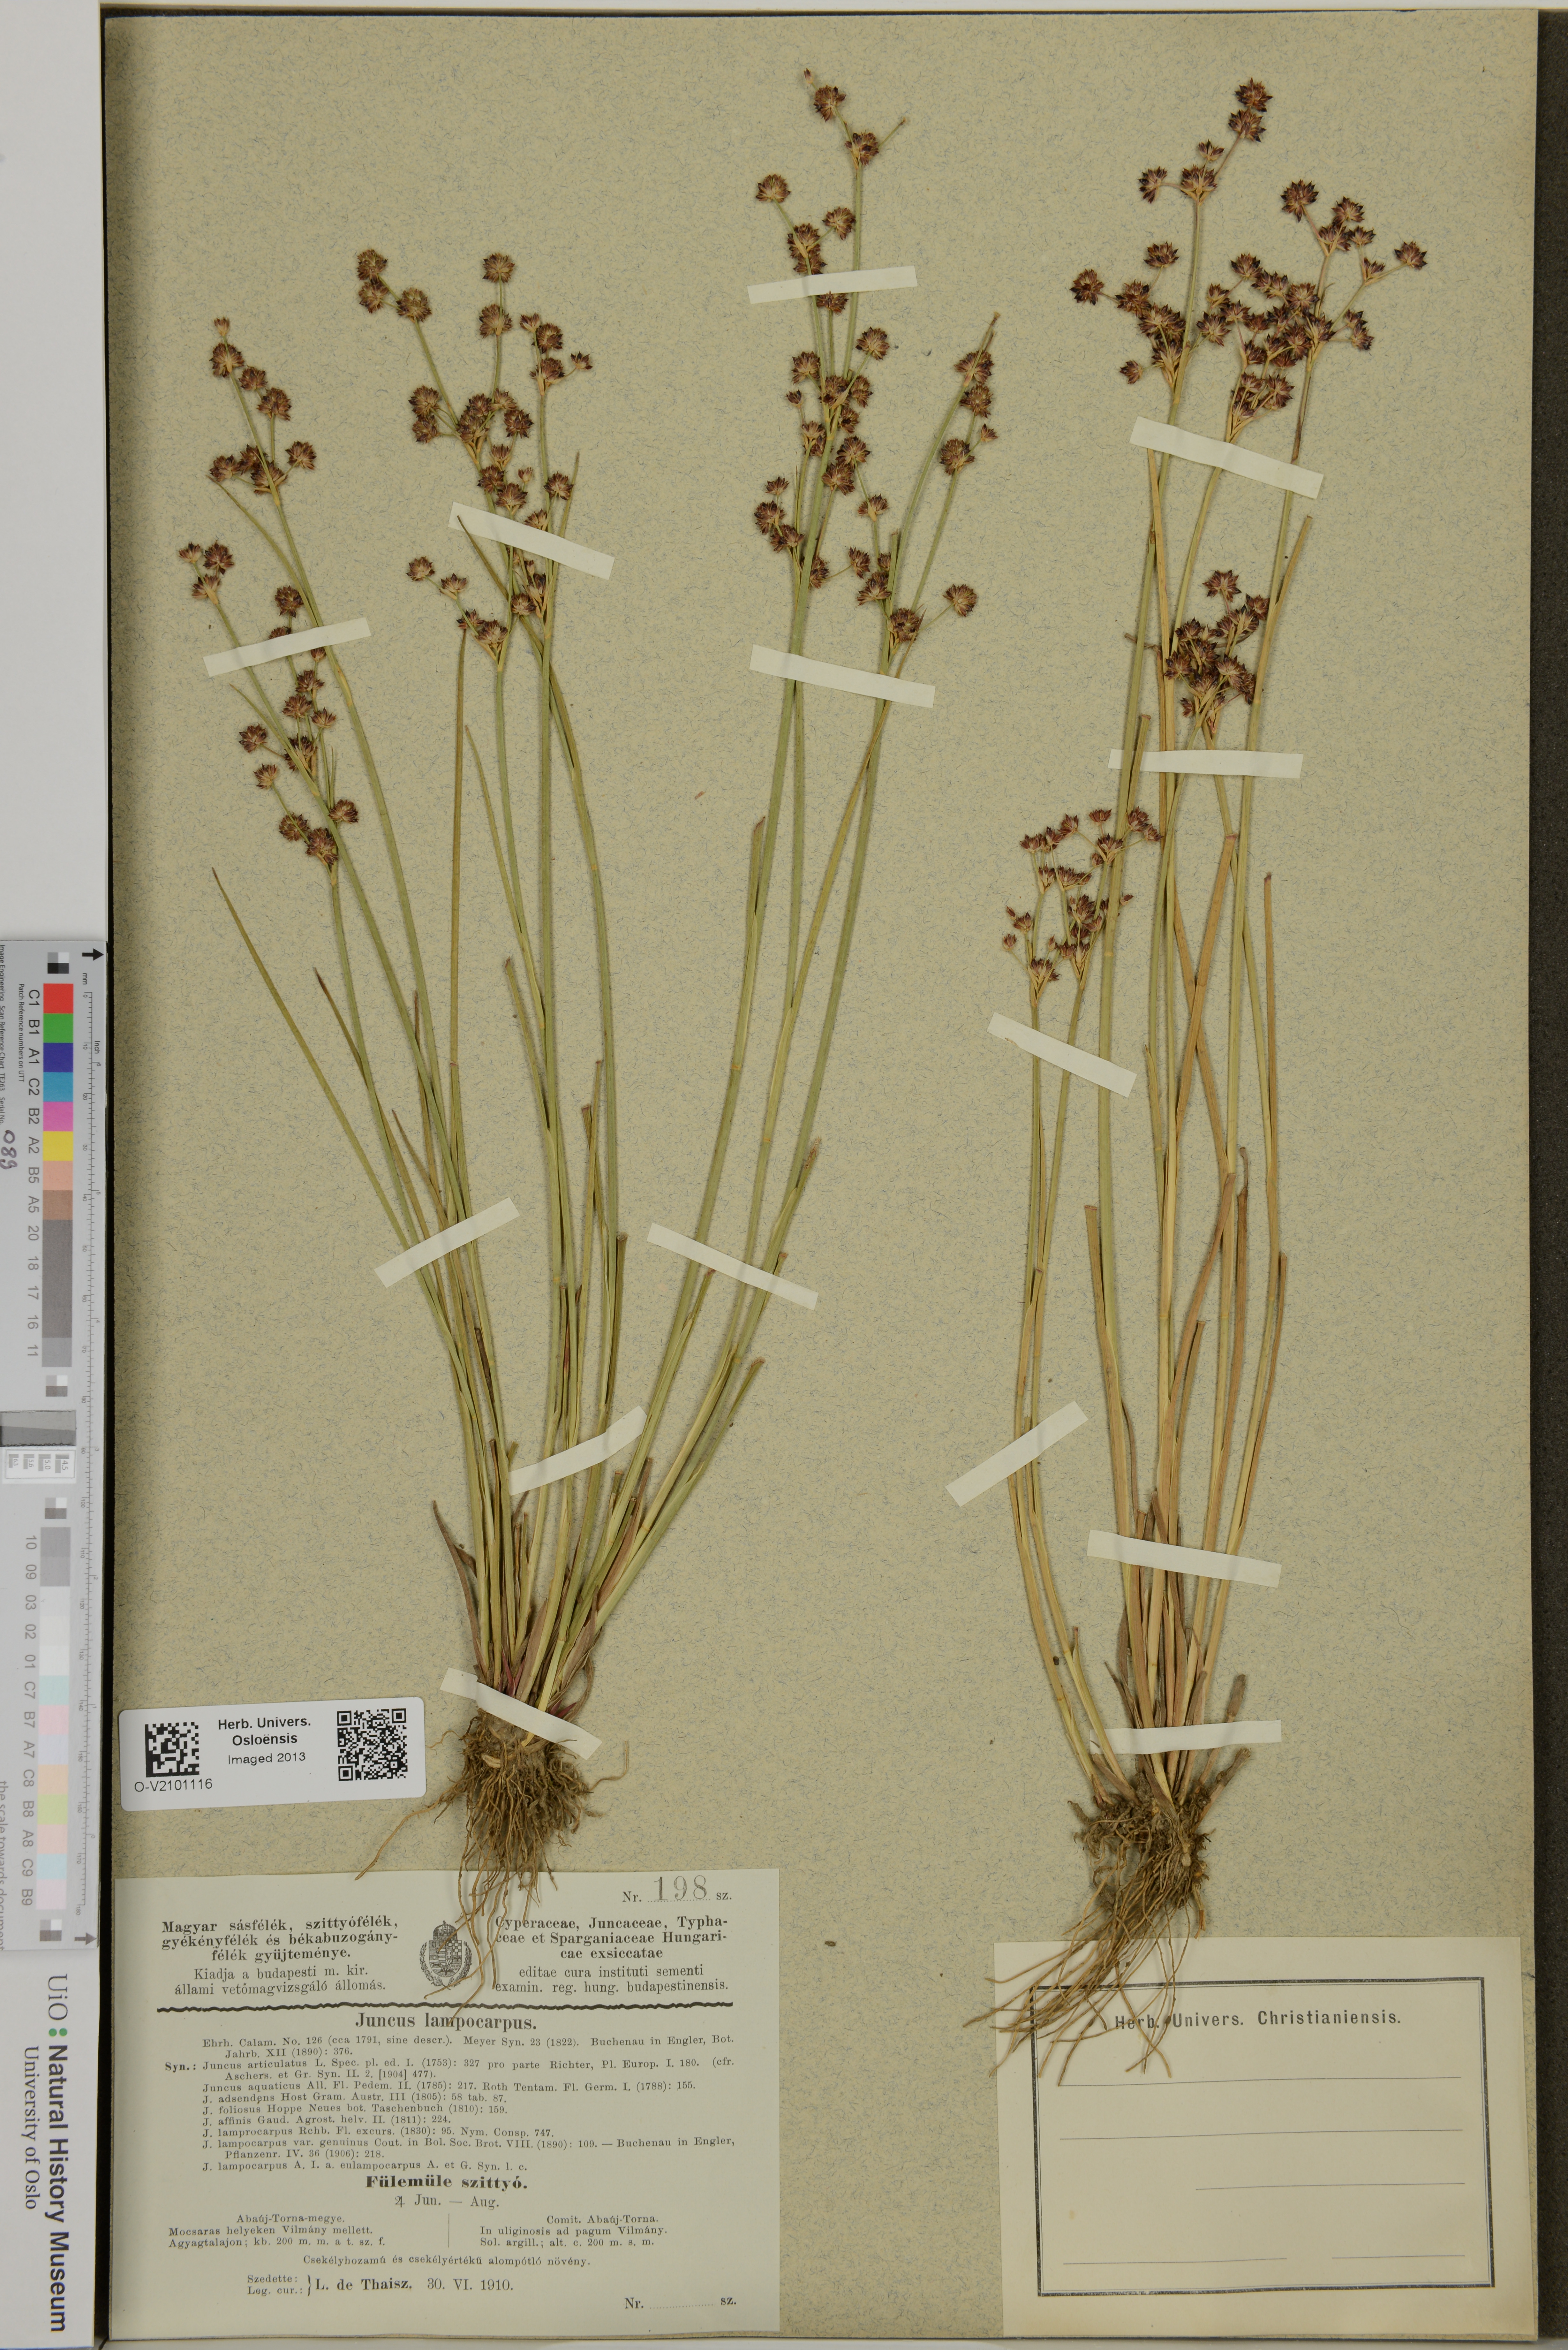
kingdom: Plantae
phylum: Tracheophyta
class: Liliopsida
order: Poales
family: Juncaceae
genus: Juncus
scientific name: Juncus articulatus
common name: Jointed rush
